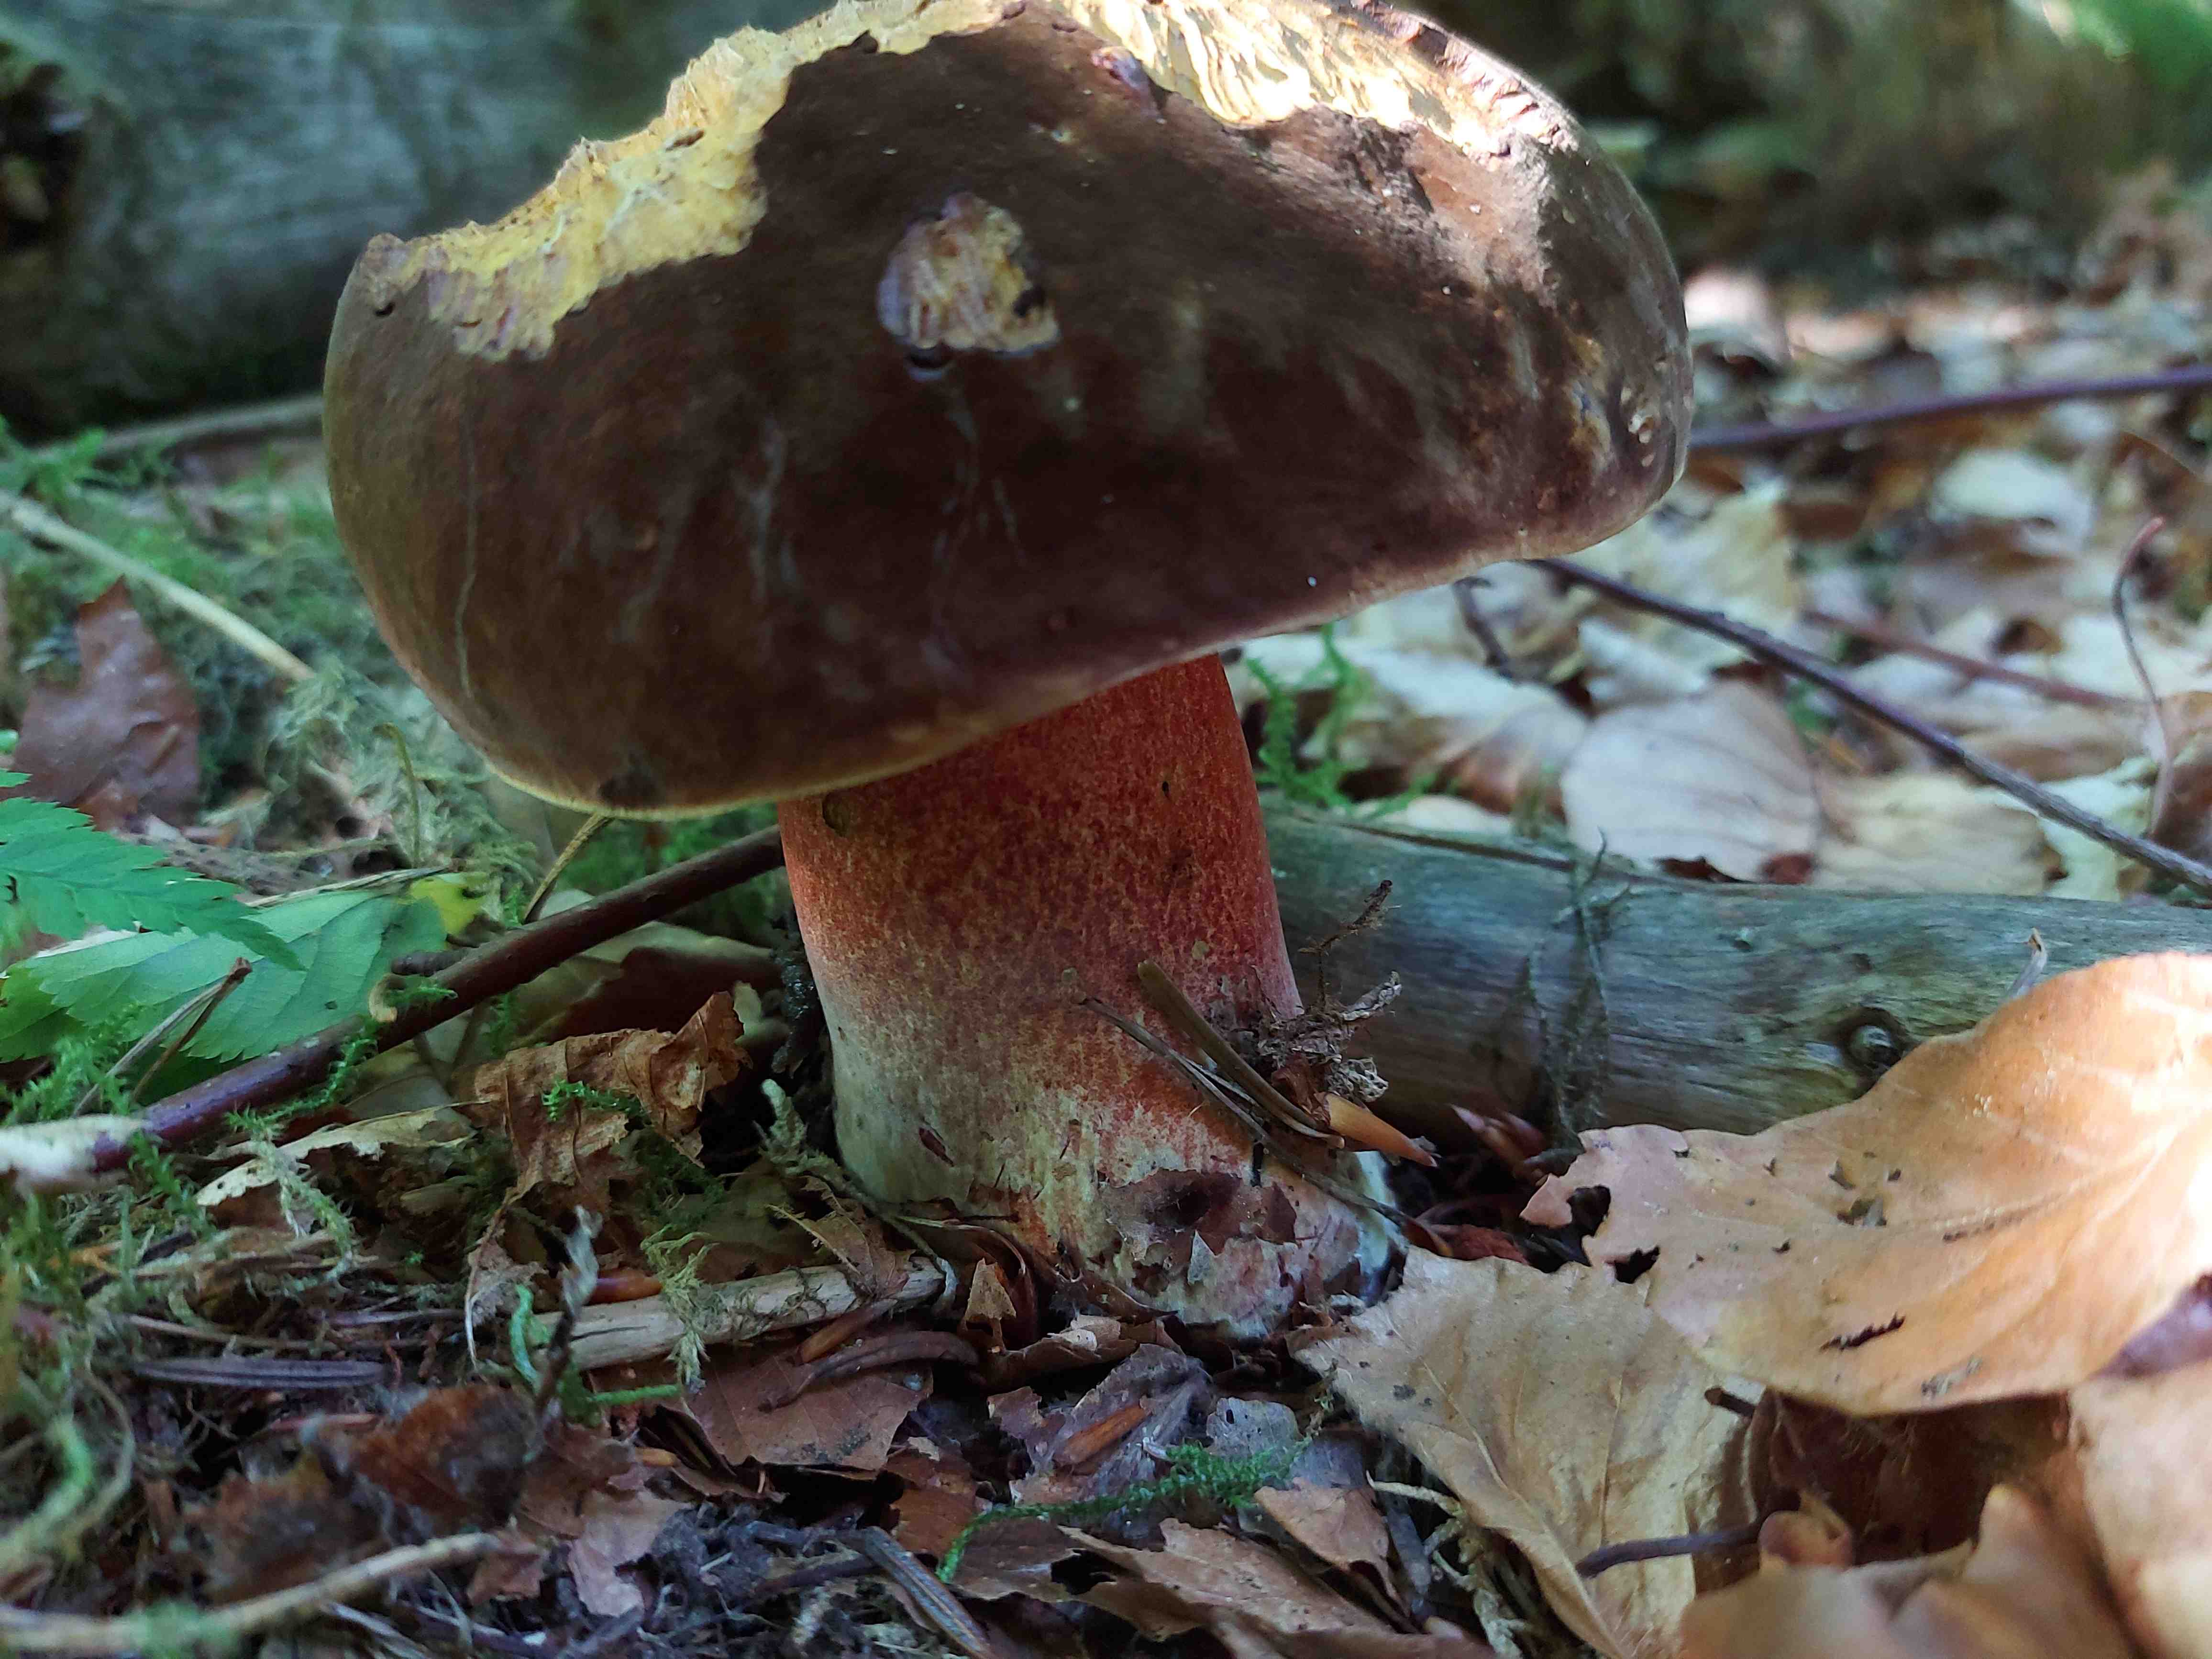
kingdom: Fungi
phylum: Basidiomycota
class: Agaricomycetes
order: Boletales
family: Boletaceae
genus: Neoboletus
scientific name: Neoboletus erythropus
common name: punktstokket indigorørhat
